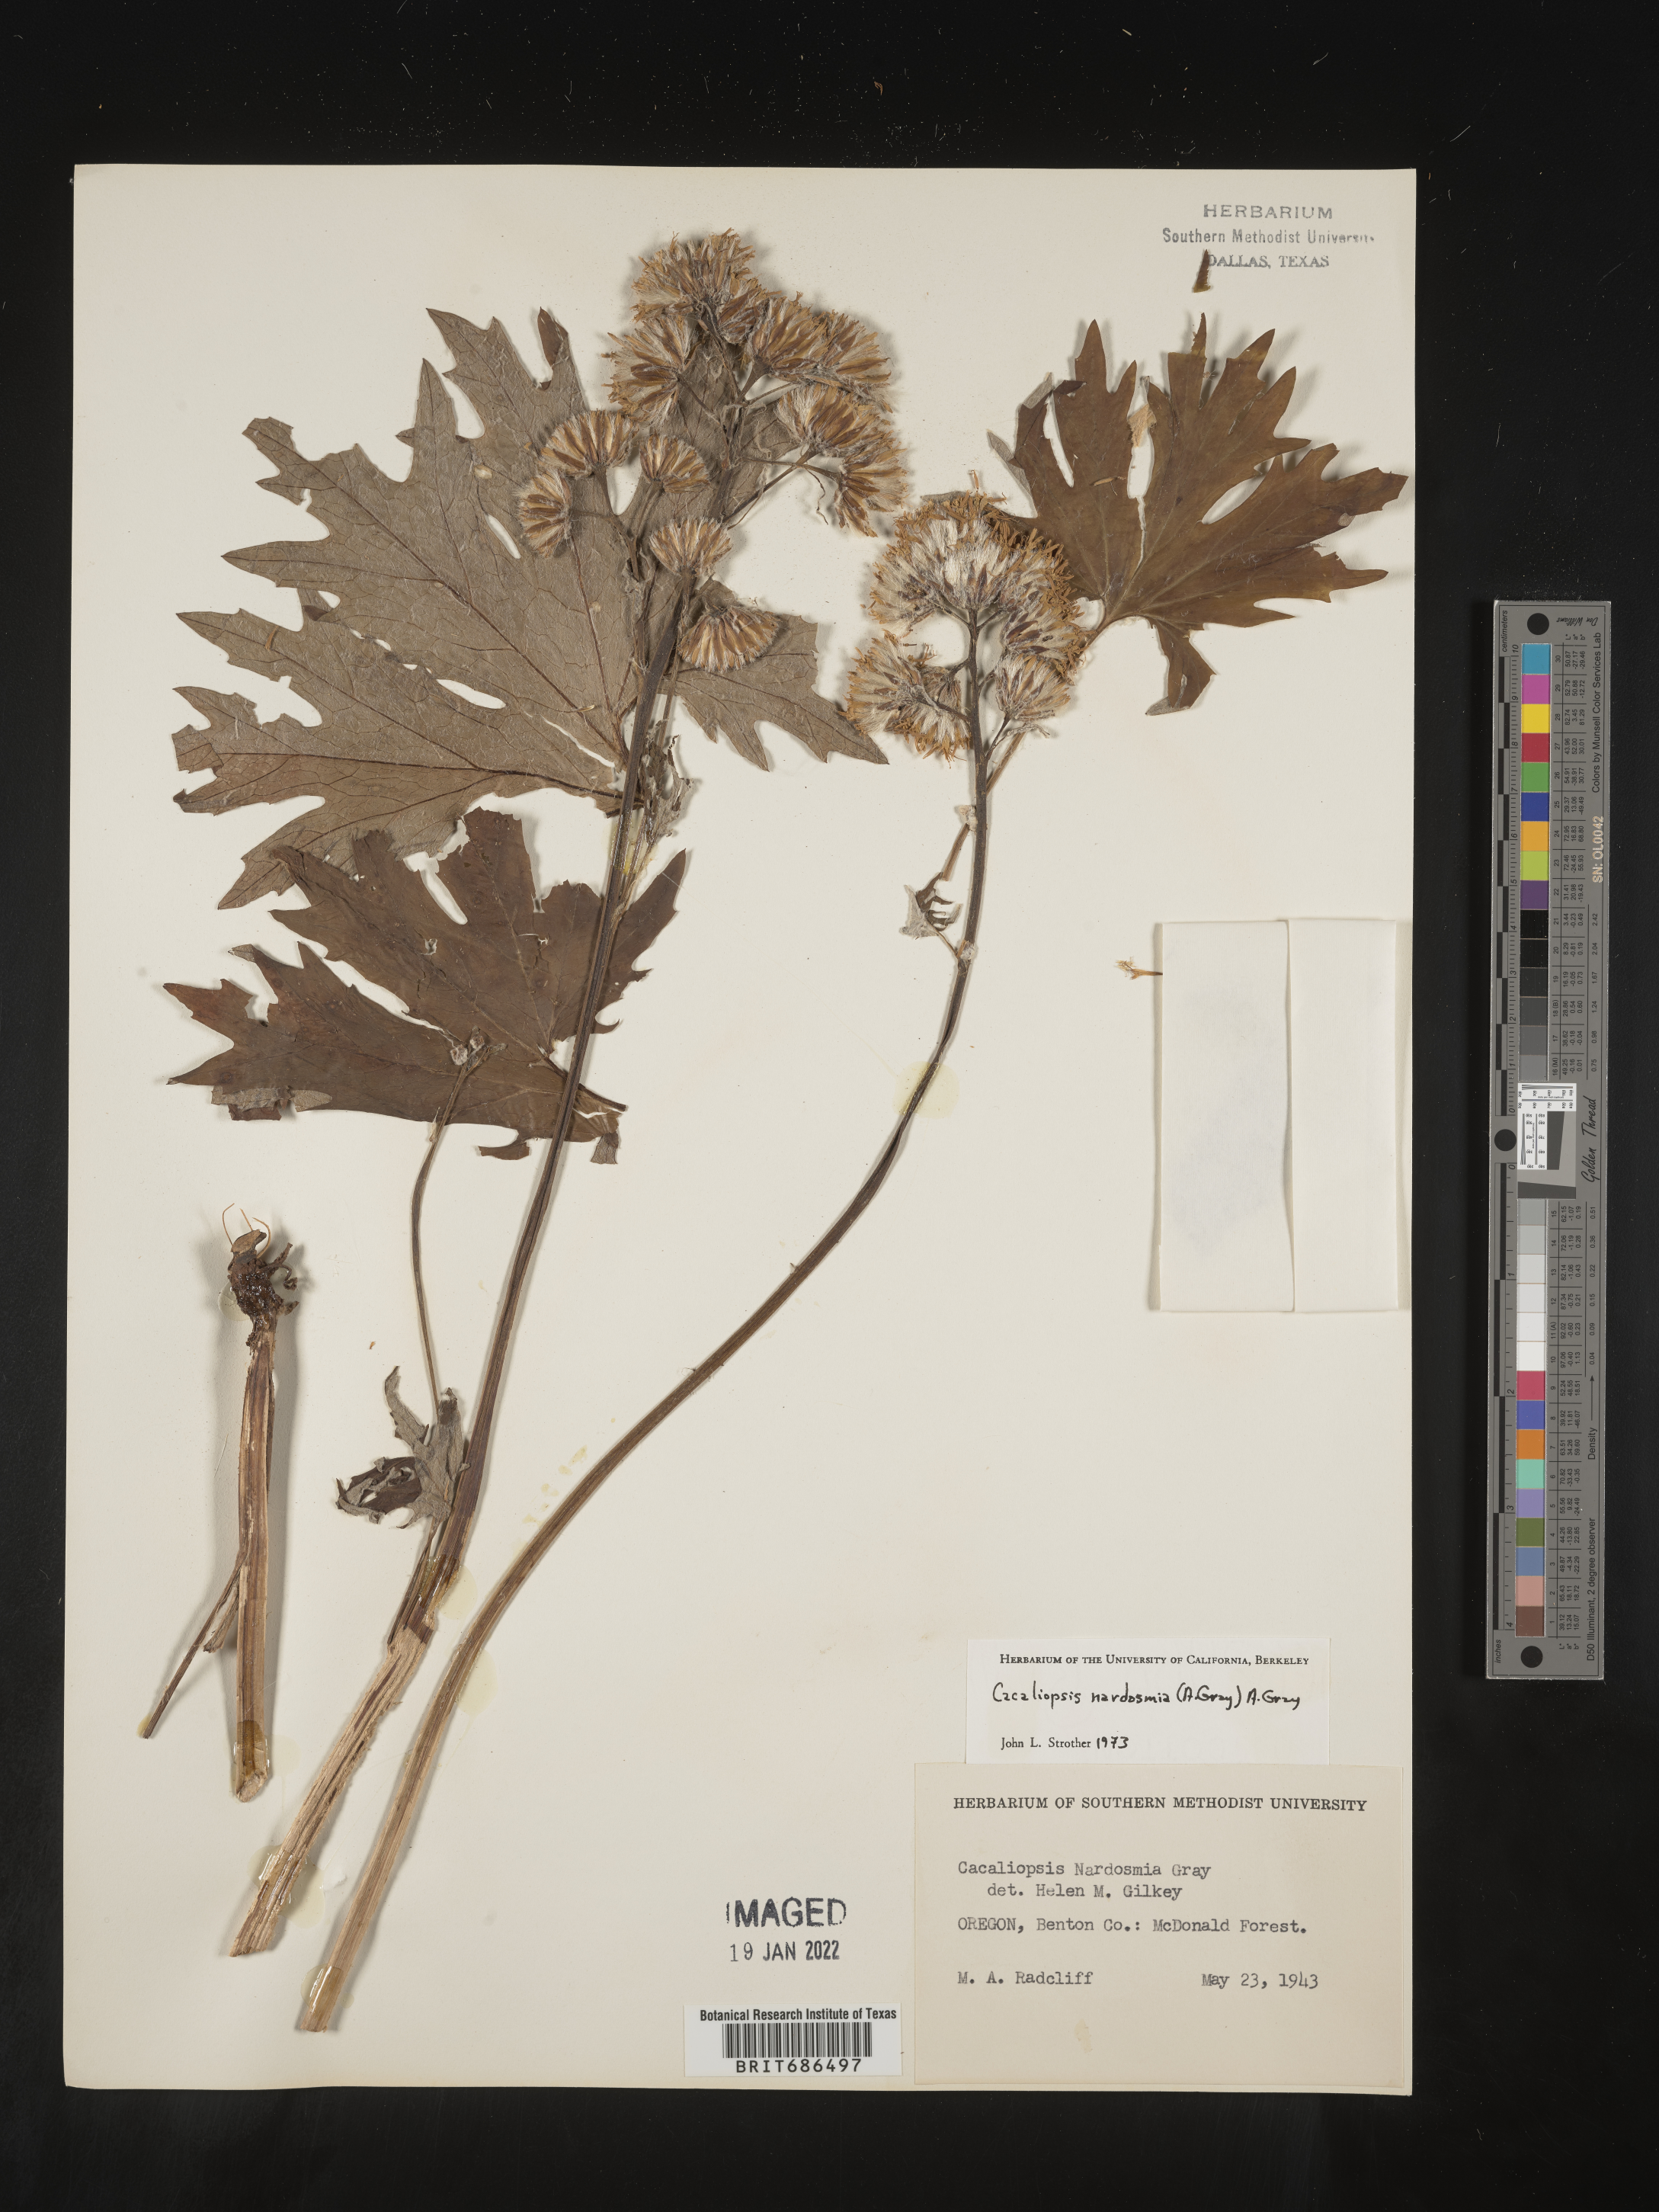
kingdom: Plantae
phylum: Tracheophyta
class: Magnoliopsida
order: Asterales
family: Asteraceae
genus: Cacaliopsis
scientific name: Cacaliopsis
